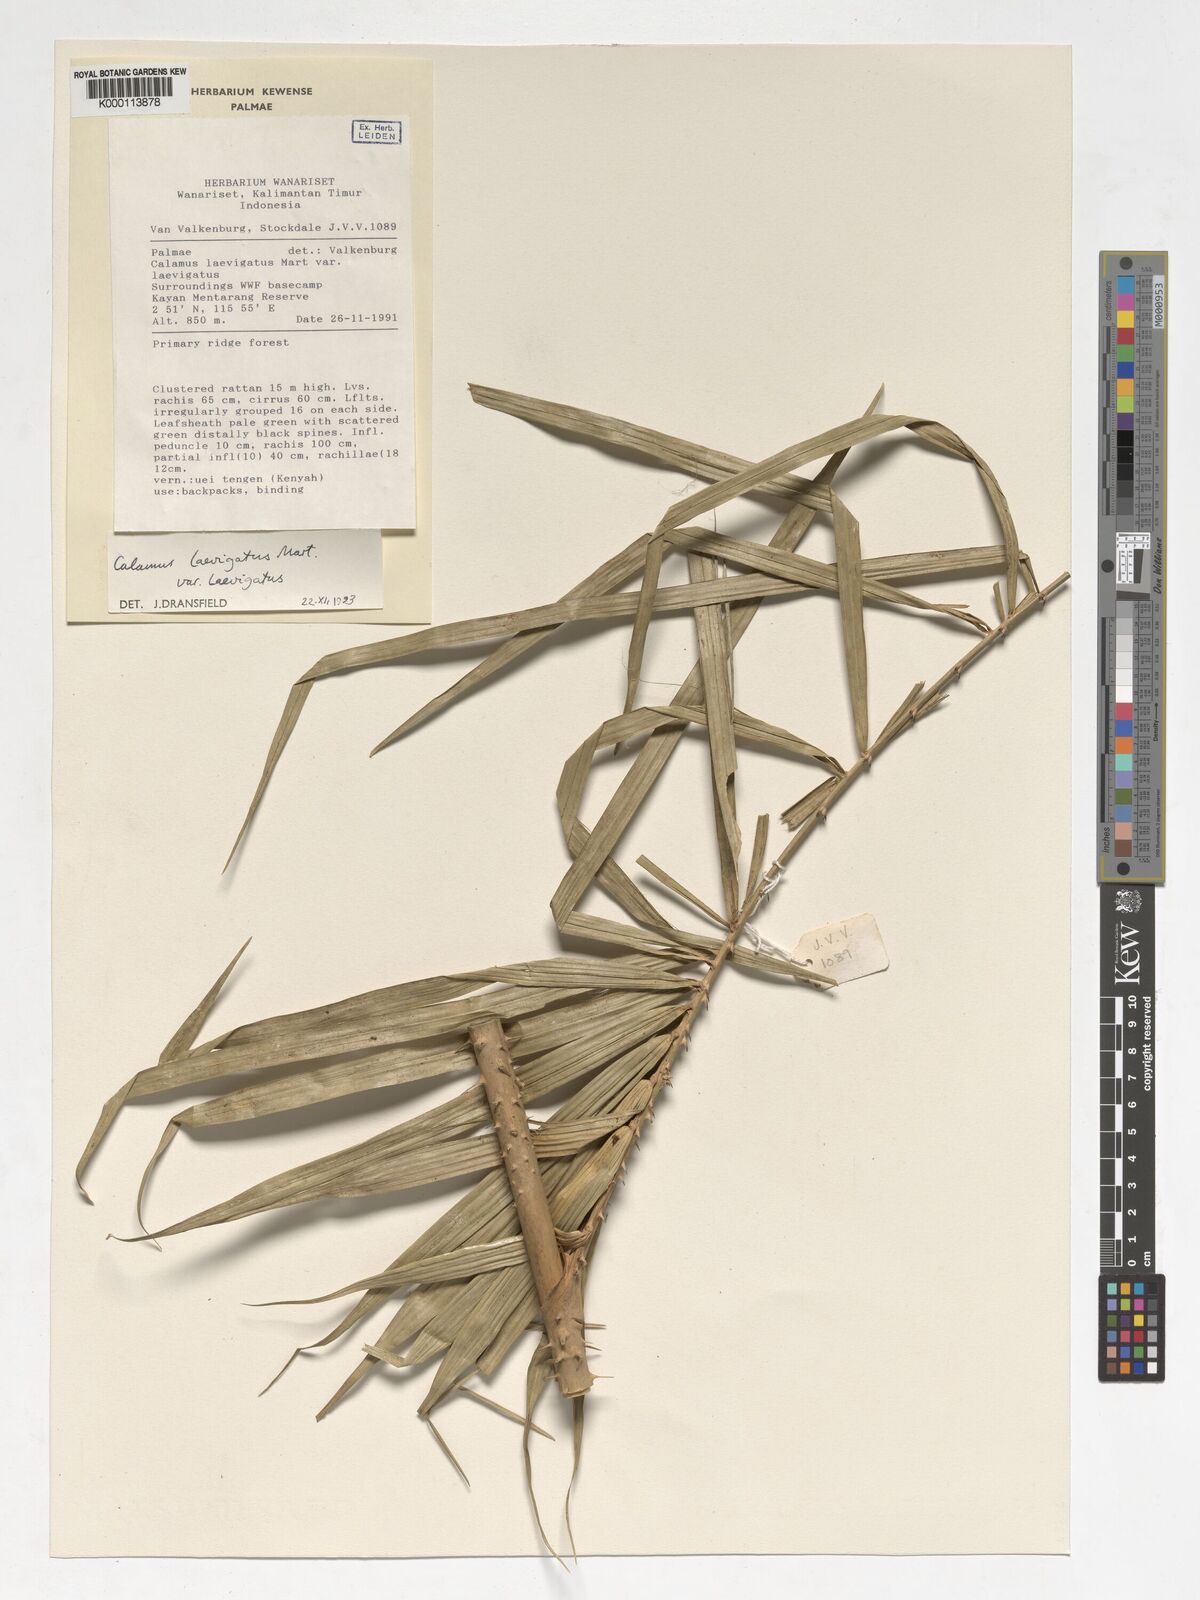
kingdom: Plantae
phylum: Tracheophyta
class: Liliopsida
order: Arecales
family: Arecaceae
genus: Calamus
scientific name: Calamus
